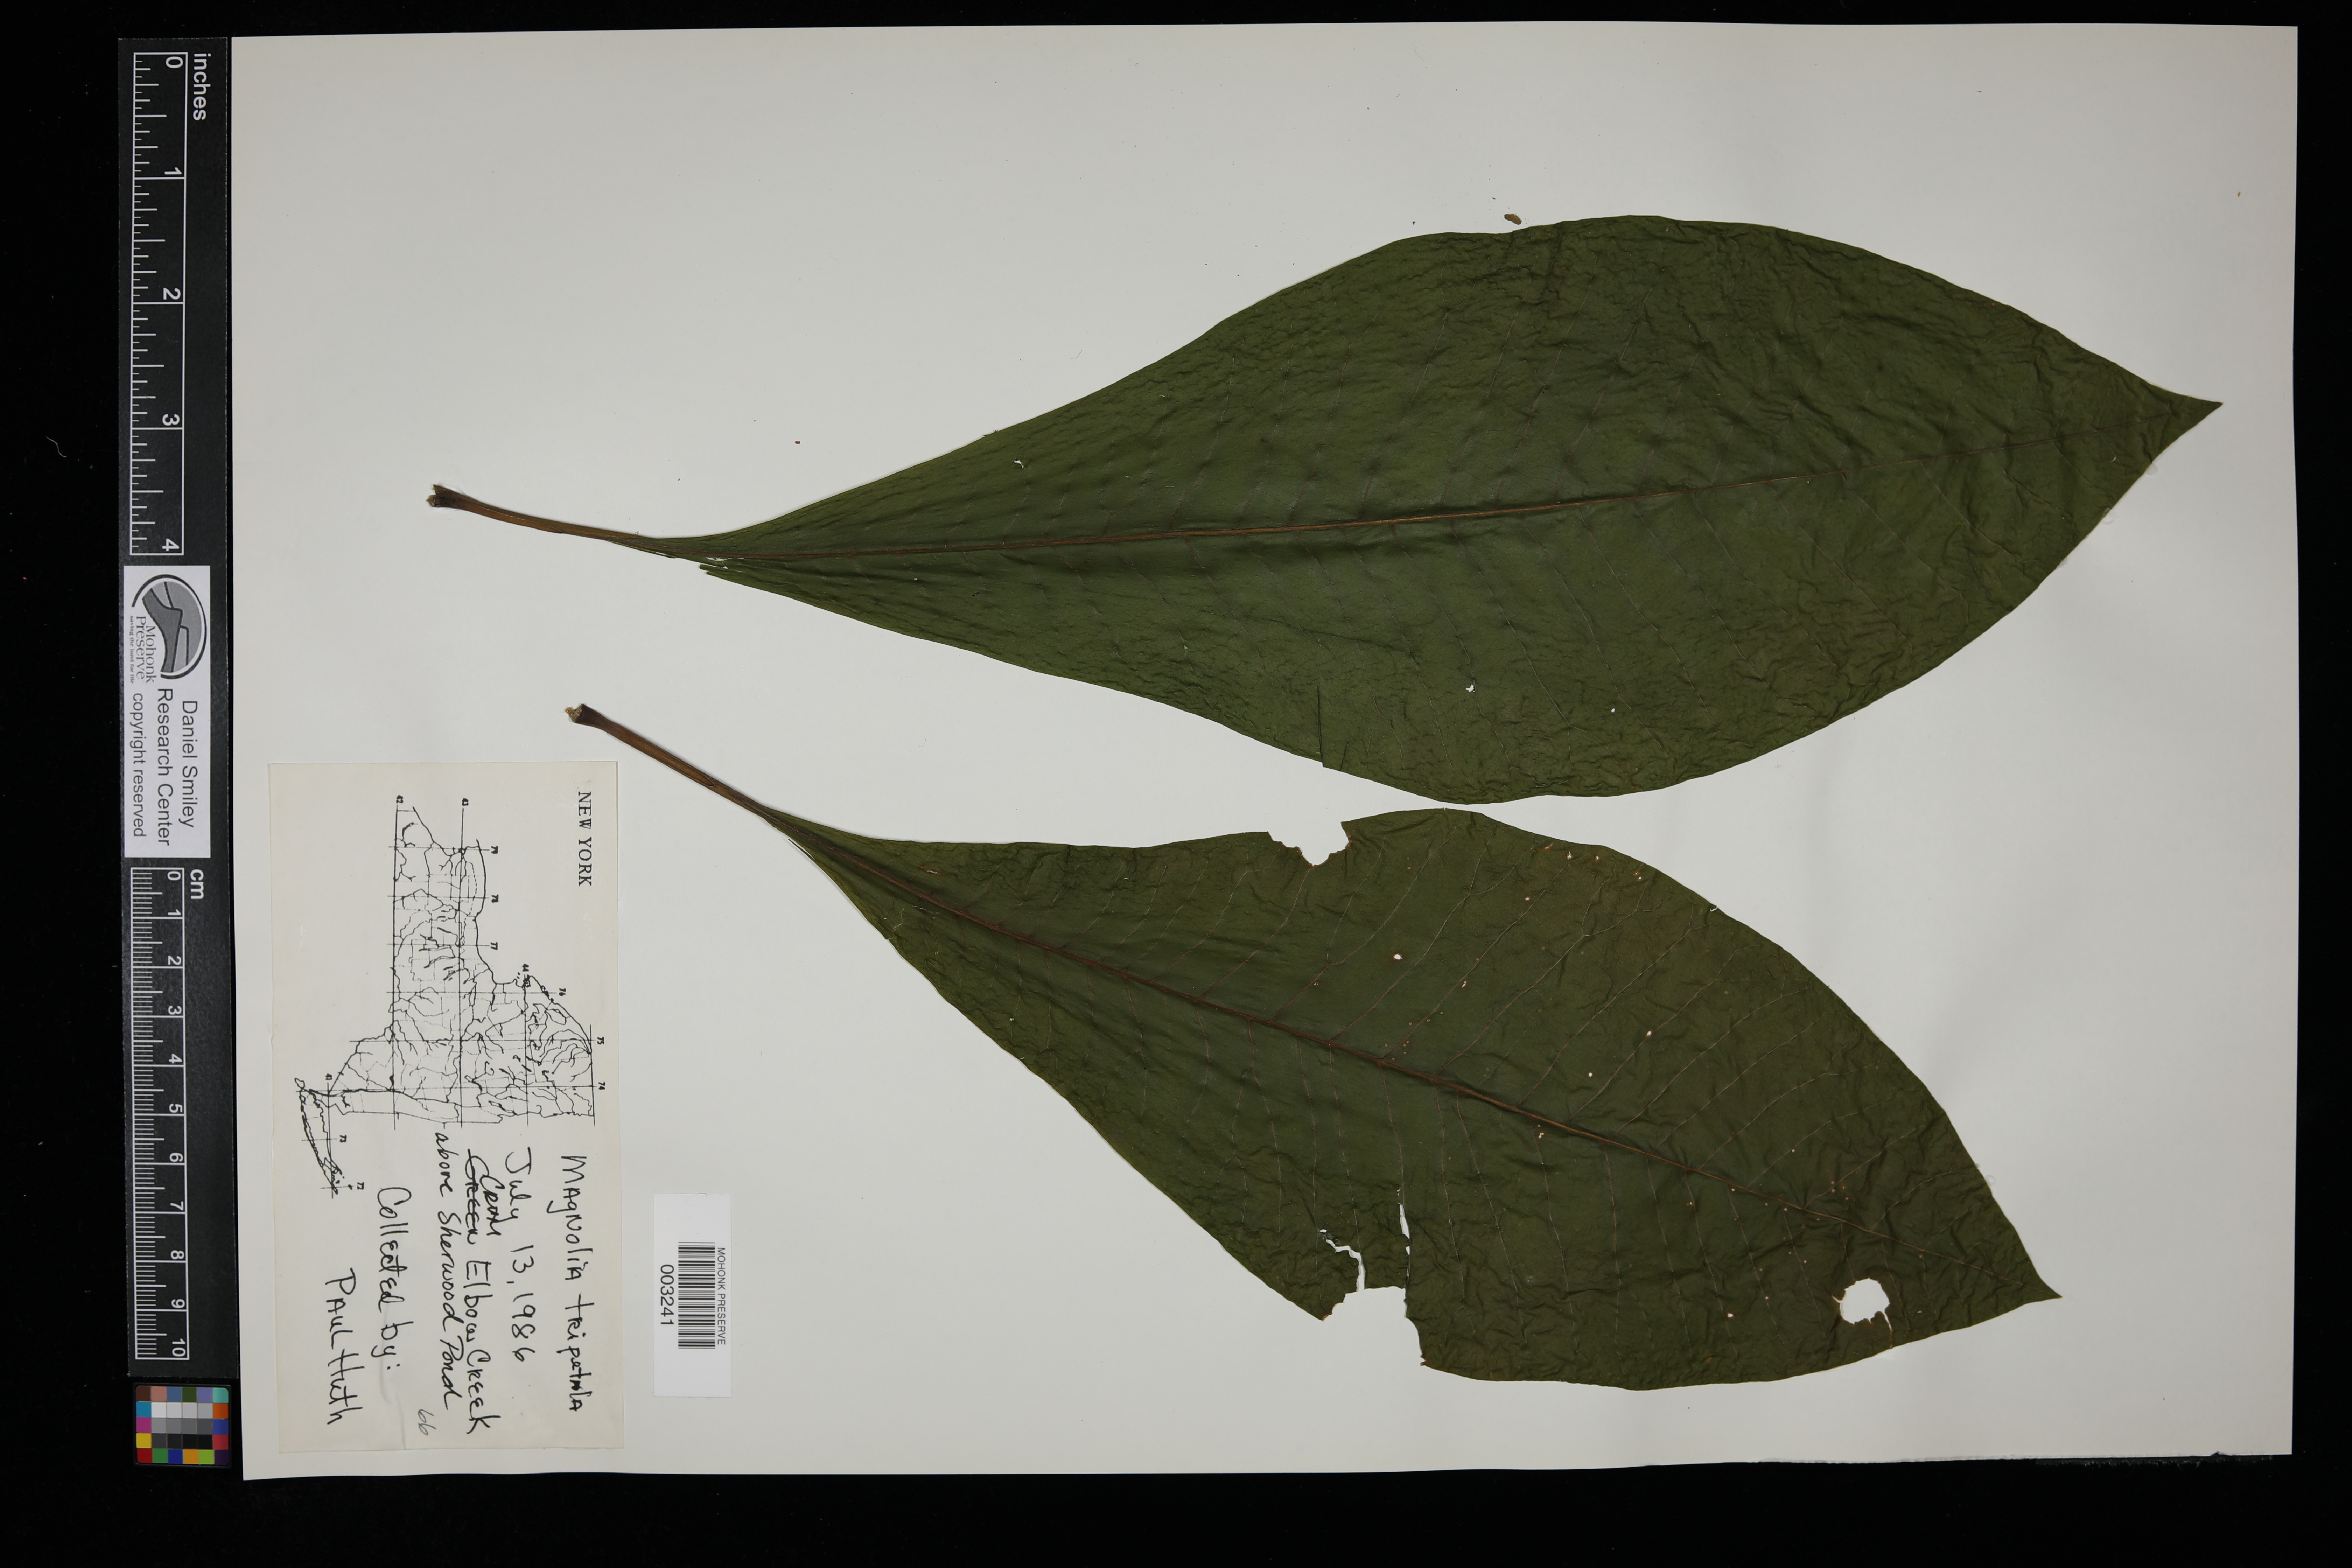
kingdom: Plantae
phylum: Tracheophyta
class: Magnoliopsida
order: Magnoliales
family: Magnoliaceae
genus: Magnolia
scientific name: Magnolia tripetala
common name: Umbrella magnolia
